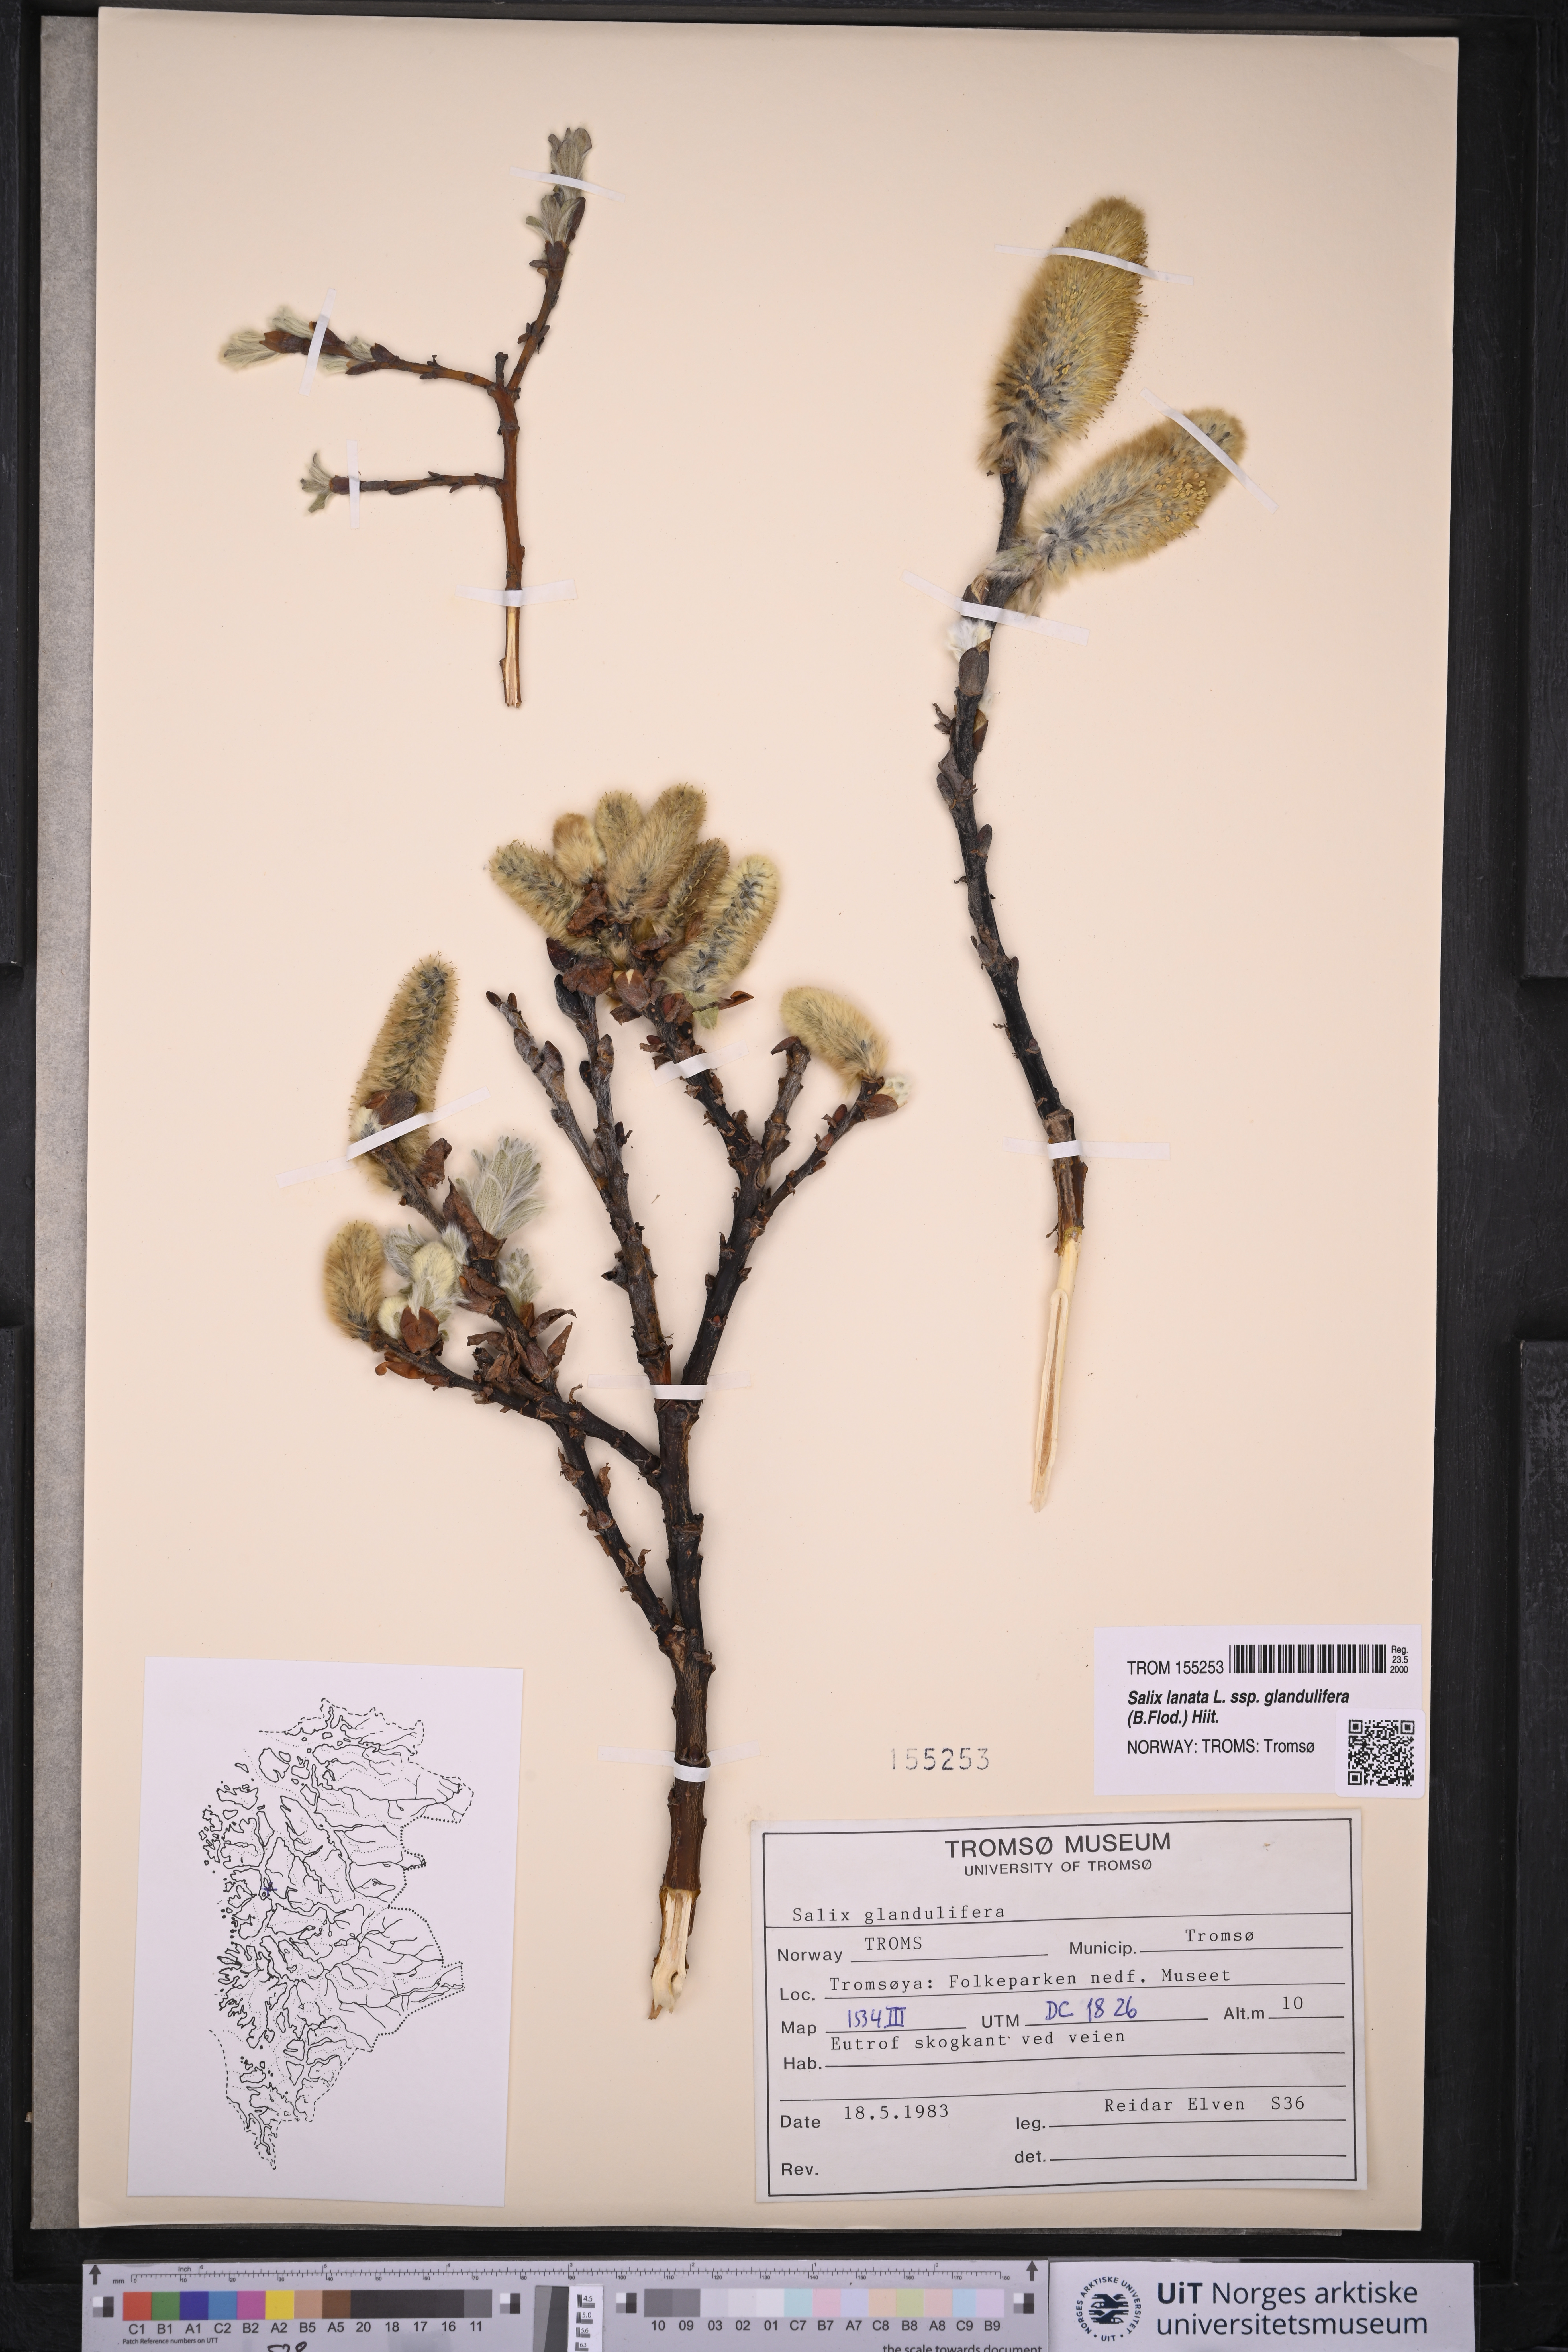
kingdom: Plantae
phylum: Tracheophyta
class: Magnoliopsida
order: Malpighiales
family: Salicaceae
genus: Salix
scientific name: Salix lanata
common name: Woolly willow
